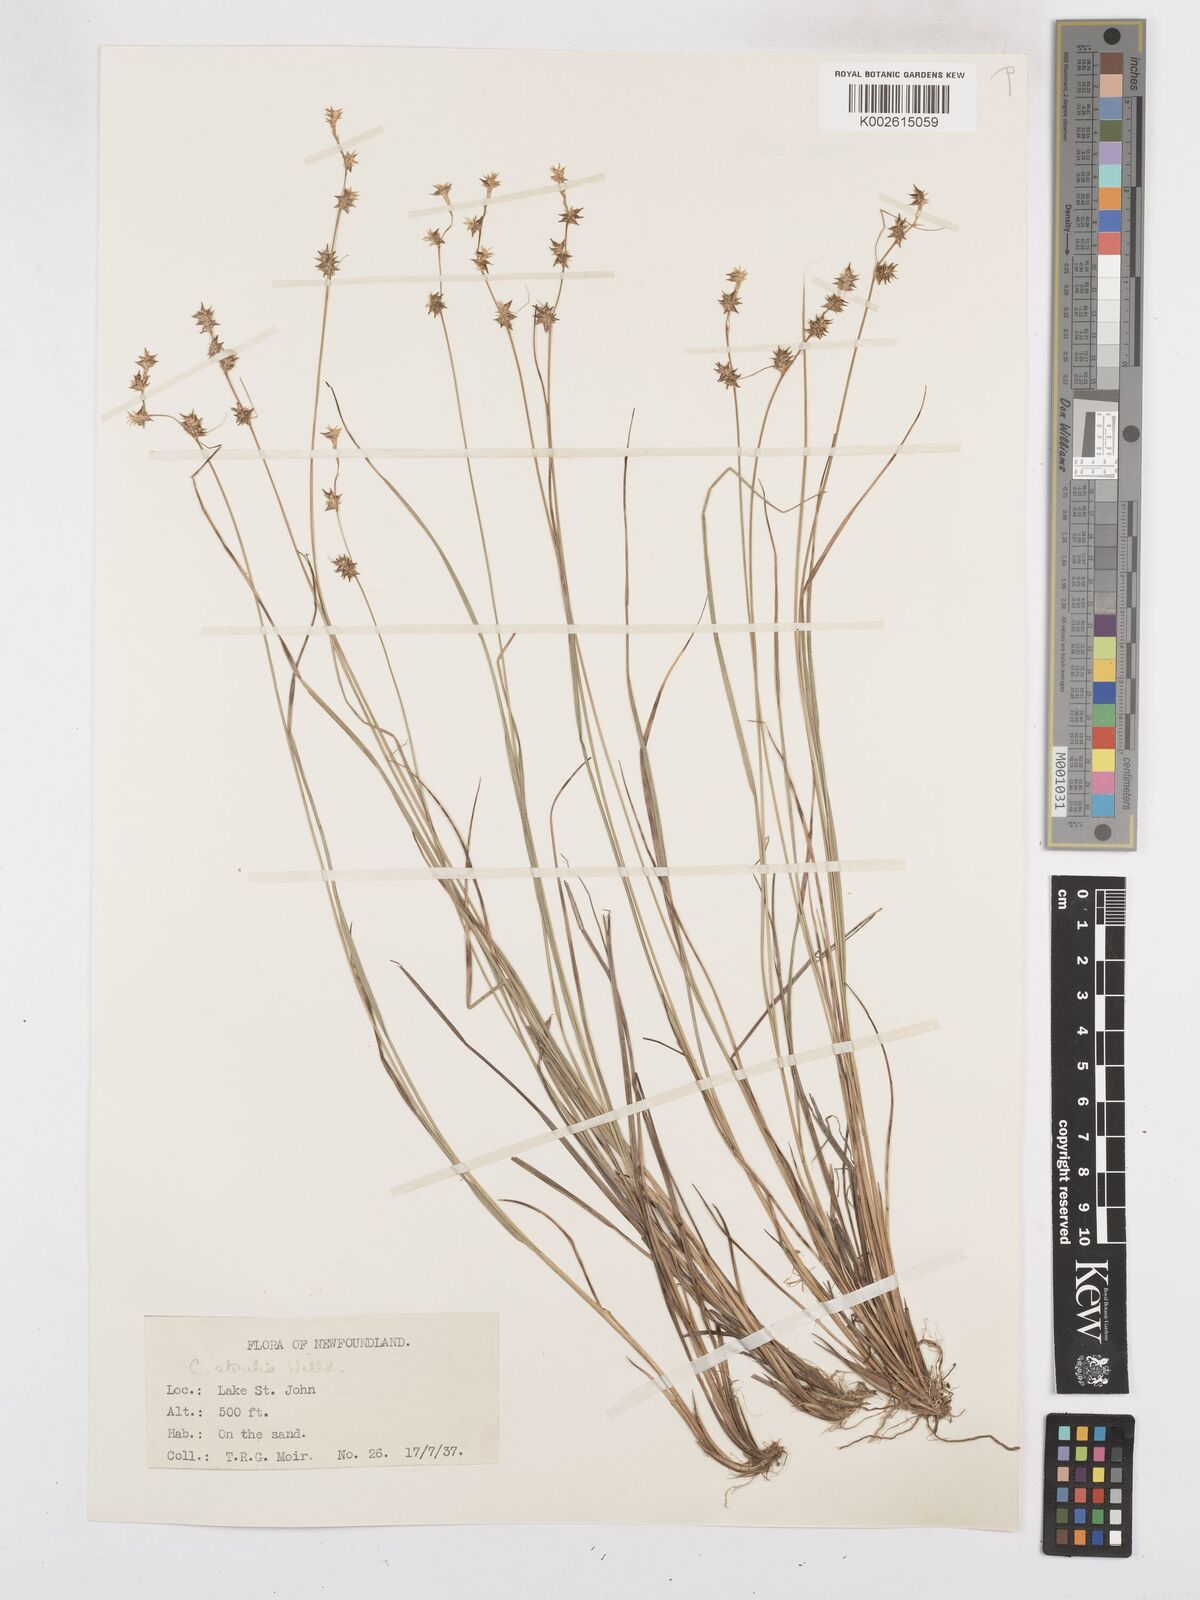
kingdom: Plantae
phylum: Tracheophyta
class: Liliopsida
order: Poales
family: Cyperaceae
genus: Carex
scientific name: Carex sterilis
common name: Dioecious sedge
